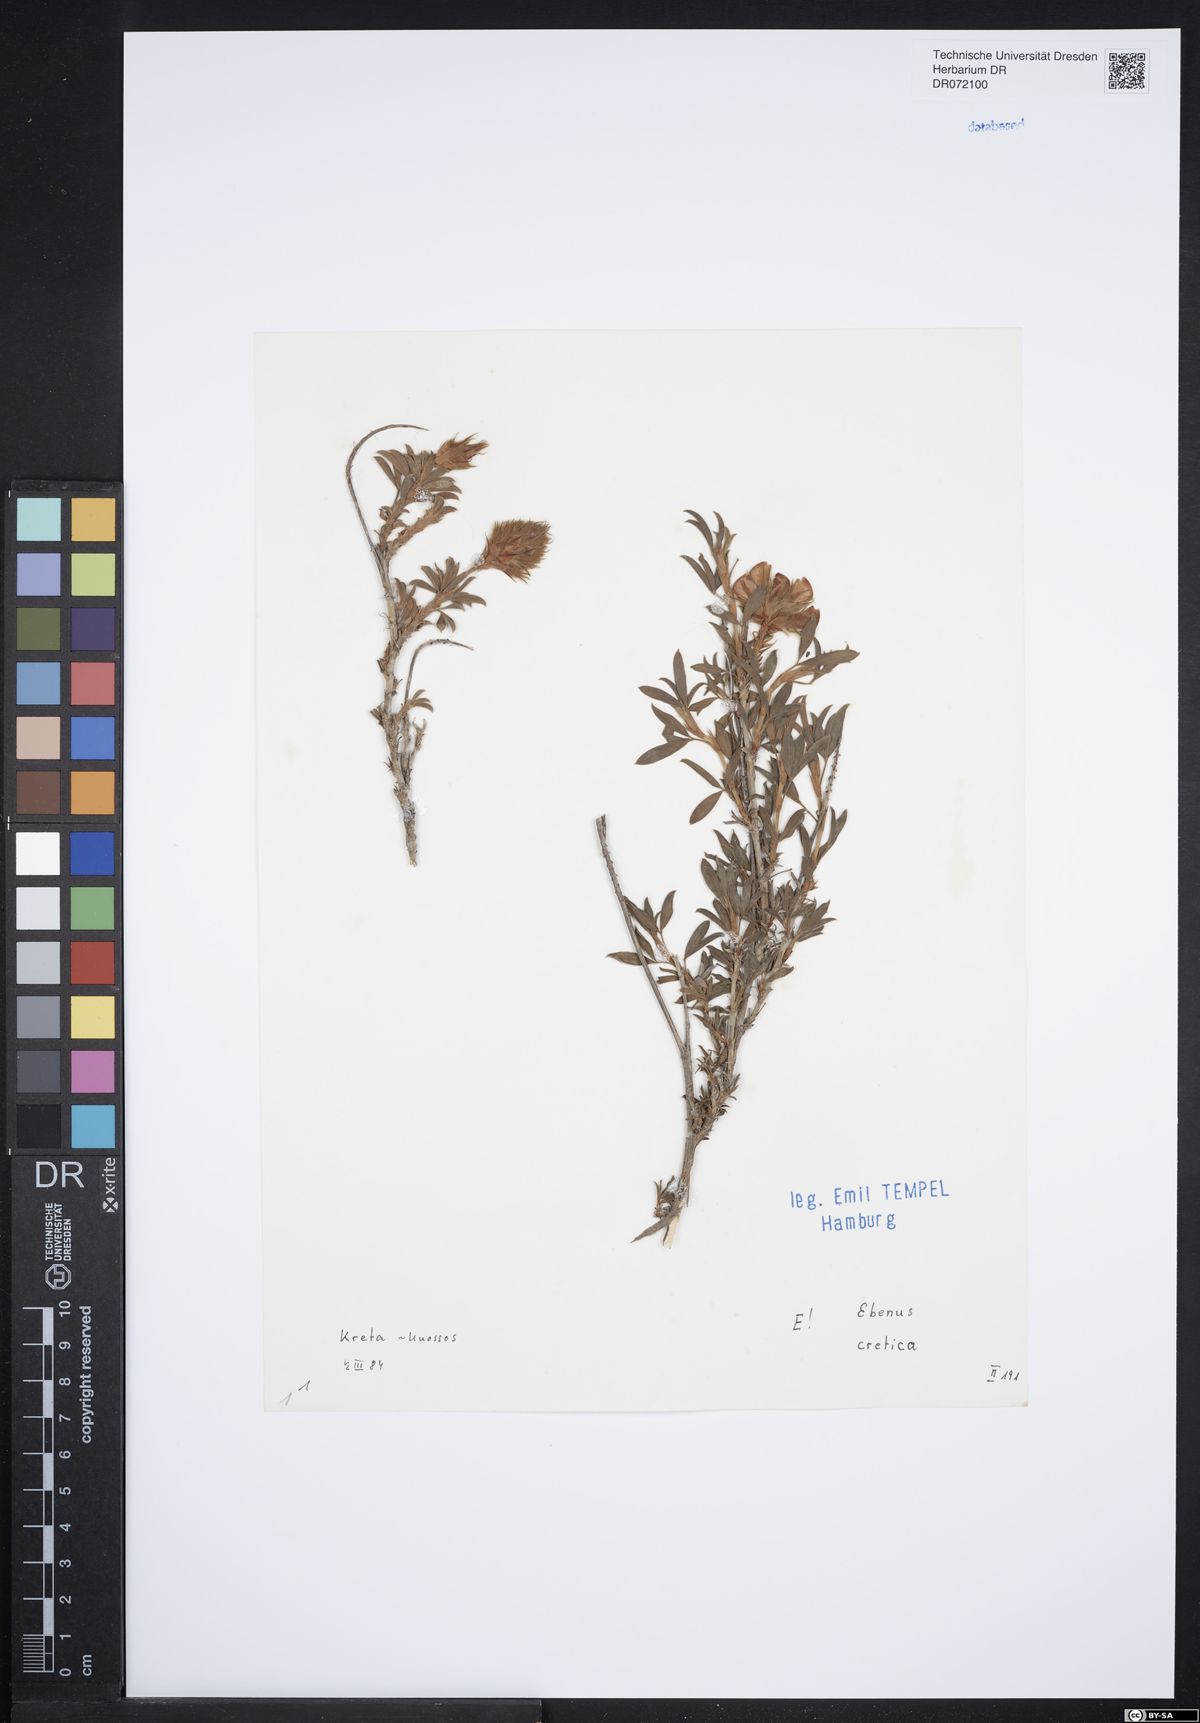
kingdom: Plantae
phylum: Tracheophyta
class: Magnoliopsida
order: Fabales
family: Fabaceae
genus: Ebenus
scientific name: Ebenus cretica
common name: Cretan silver bush
